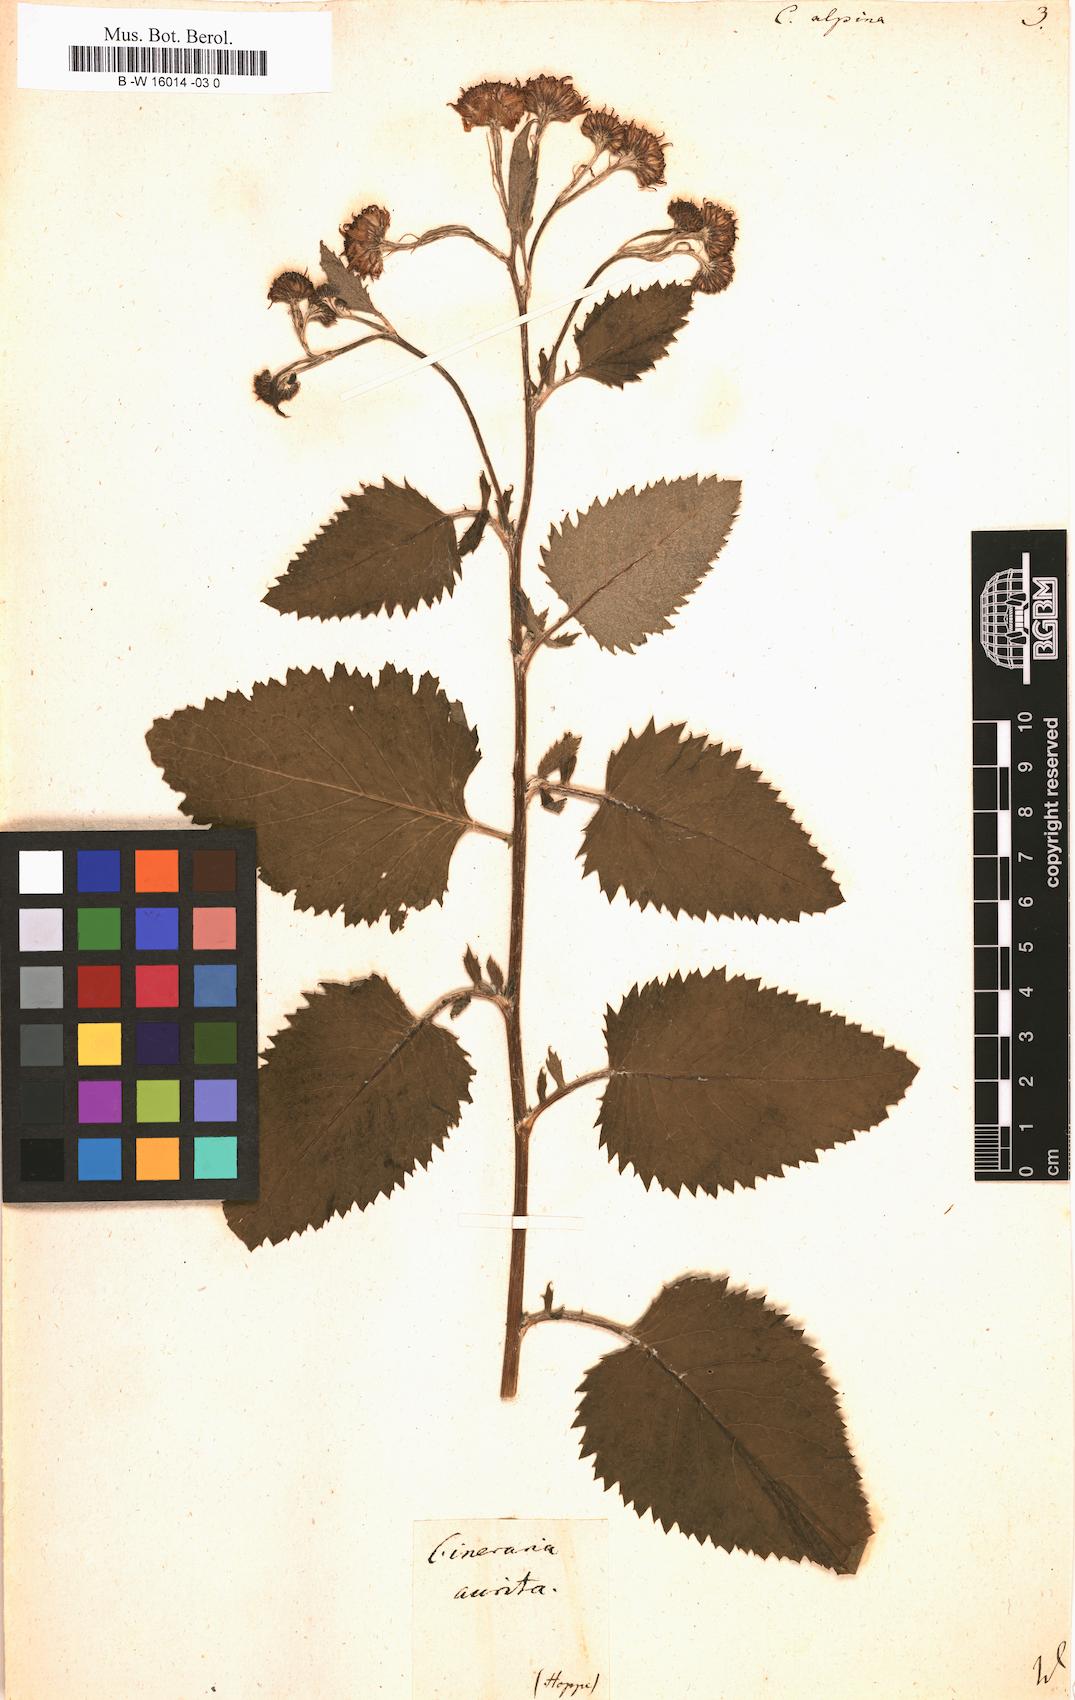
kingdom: Plantae
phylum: Tracheophyta
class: Magnoliopsida
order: Asterales
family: Asteraceae
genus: Jacobaea
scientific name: Jacobaea alpina
